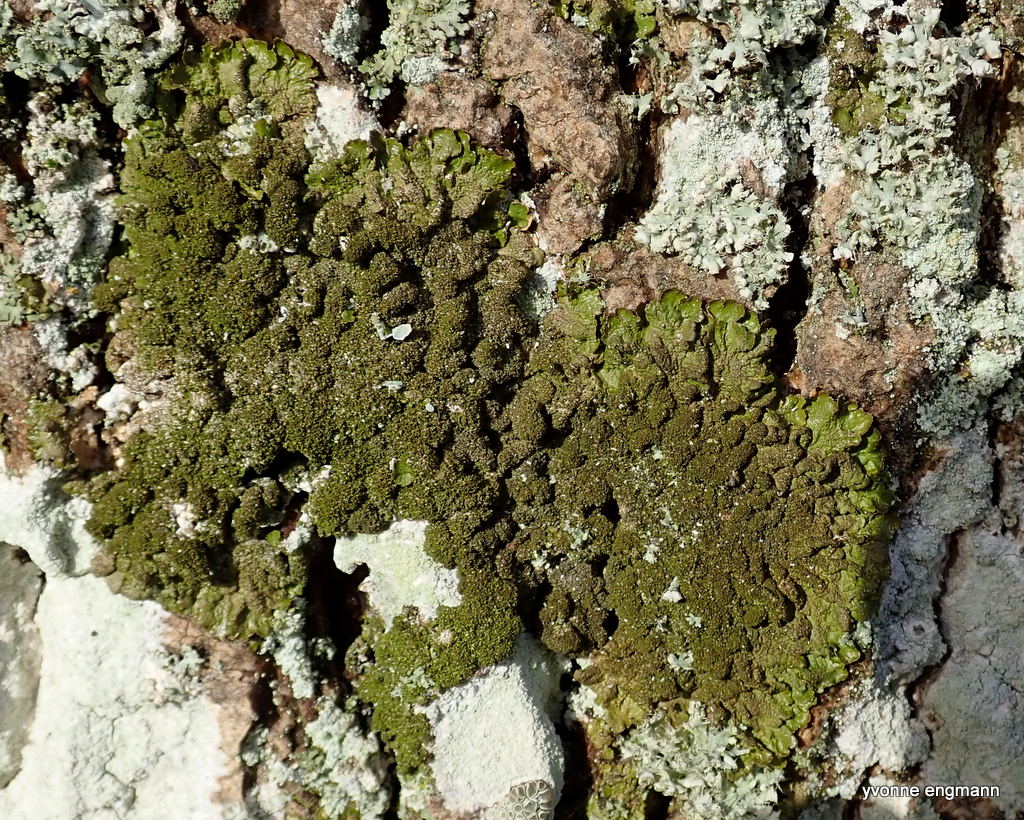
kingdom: Fungi
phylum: Ascomycota
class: Lecanoromycetes
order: Lecanorales
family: Parmeliaceae
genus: Melanelixia
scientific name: Melanelixia glabratula
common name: glinsende skållav
